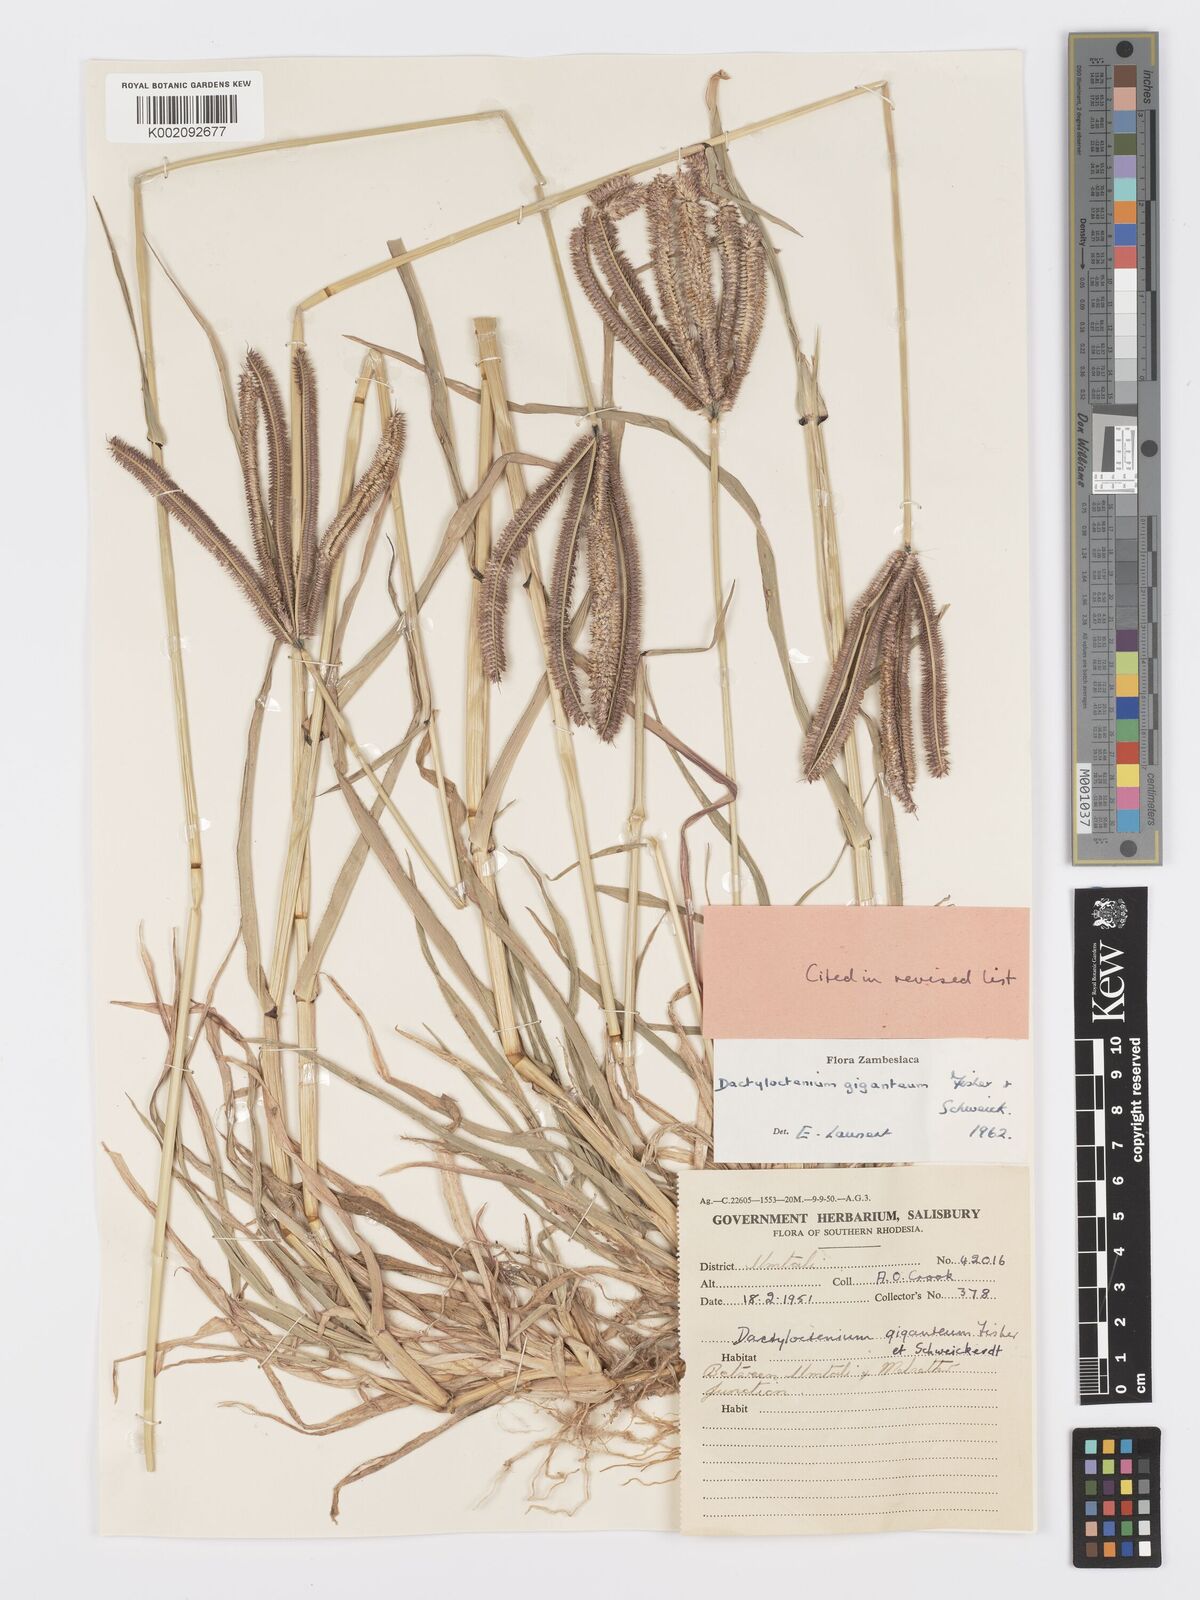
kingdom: Plantae
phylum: Tracheophyta
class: Liliopsida
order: Poales
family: Poaceae
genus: Dactyloctenium
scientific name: Dactyloctenium giganteum
